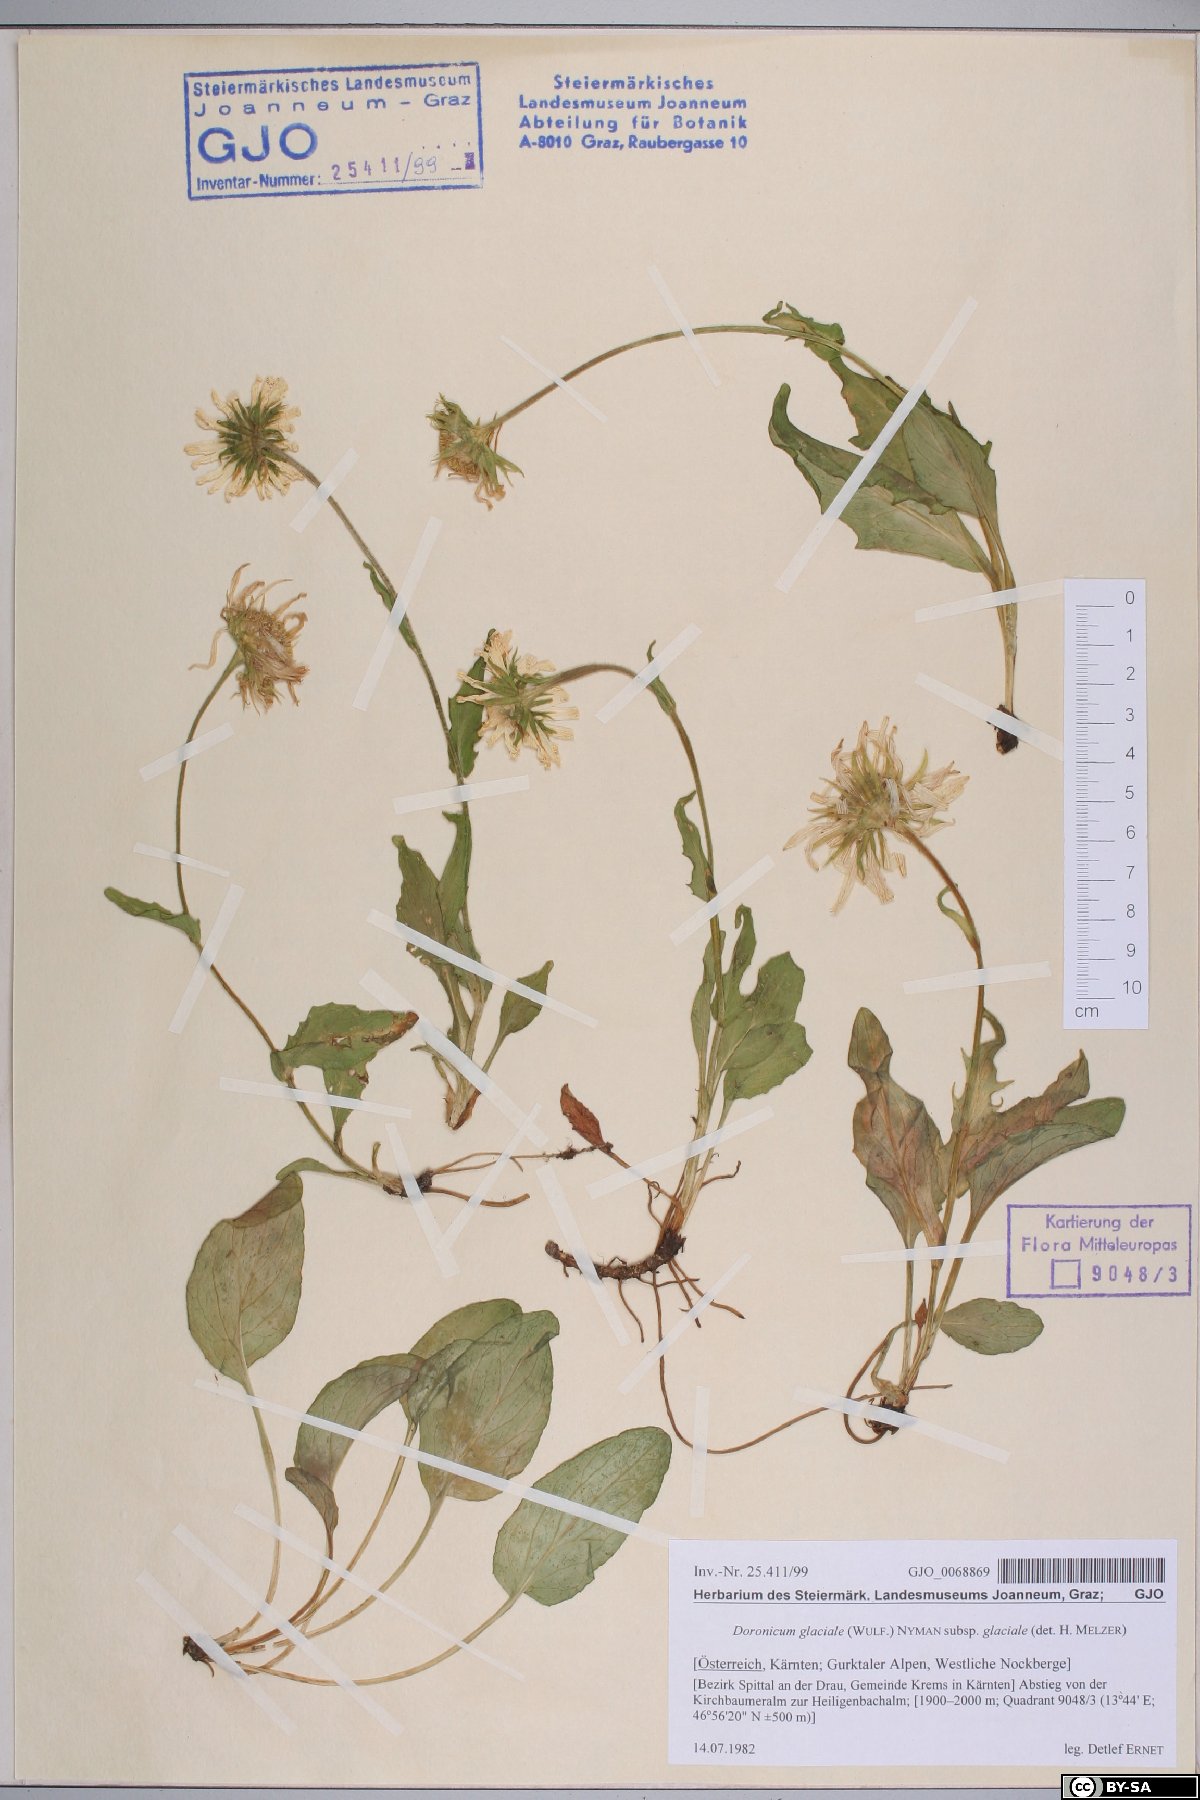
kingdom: Plantae
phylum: Tracheophyta
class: Magnoliopsida
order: Asterales
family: Asteraceae
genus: Doronicum
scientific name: Doronicum glaciale
